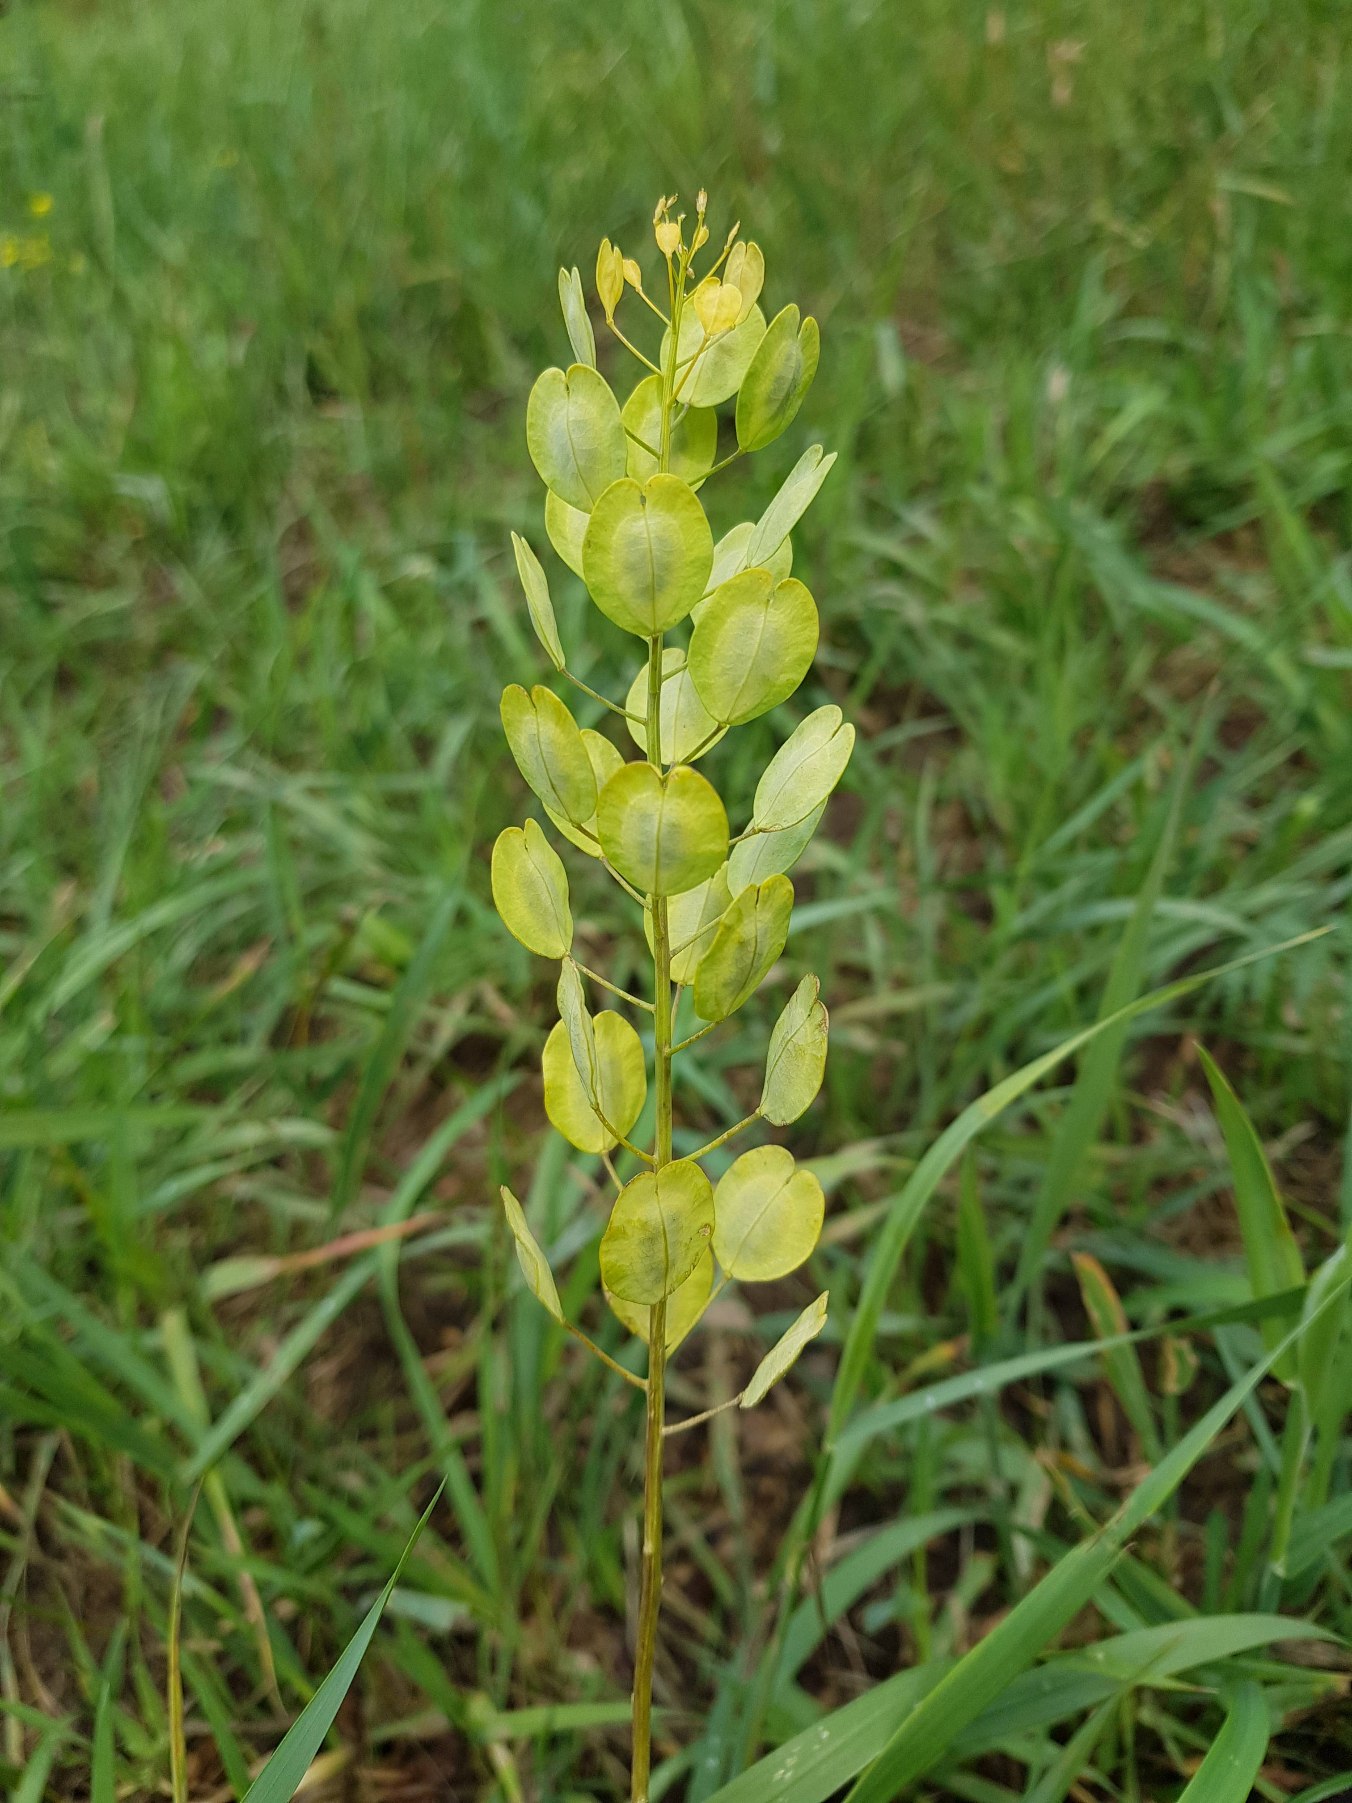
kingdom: Plantae
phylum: Tracheophyta
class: Magnoliopsida
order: Brassicales
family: Brassicaceae
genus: Thlaspi
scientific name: Thlaspi arvense
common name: Almindelig pengeurt
